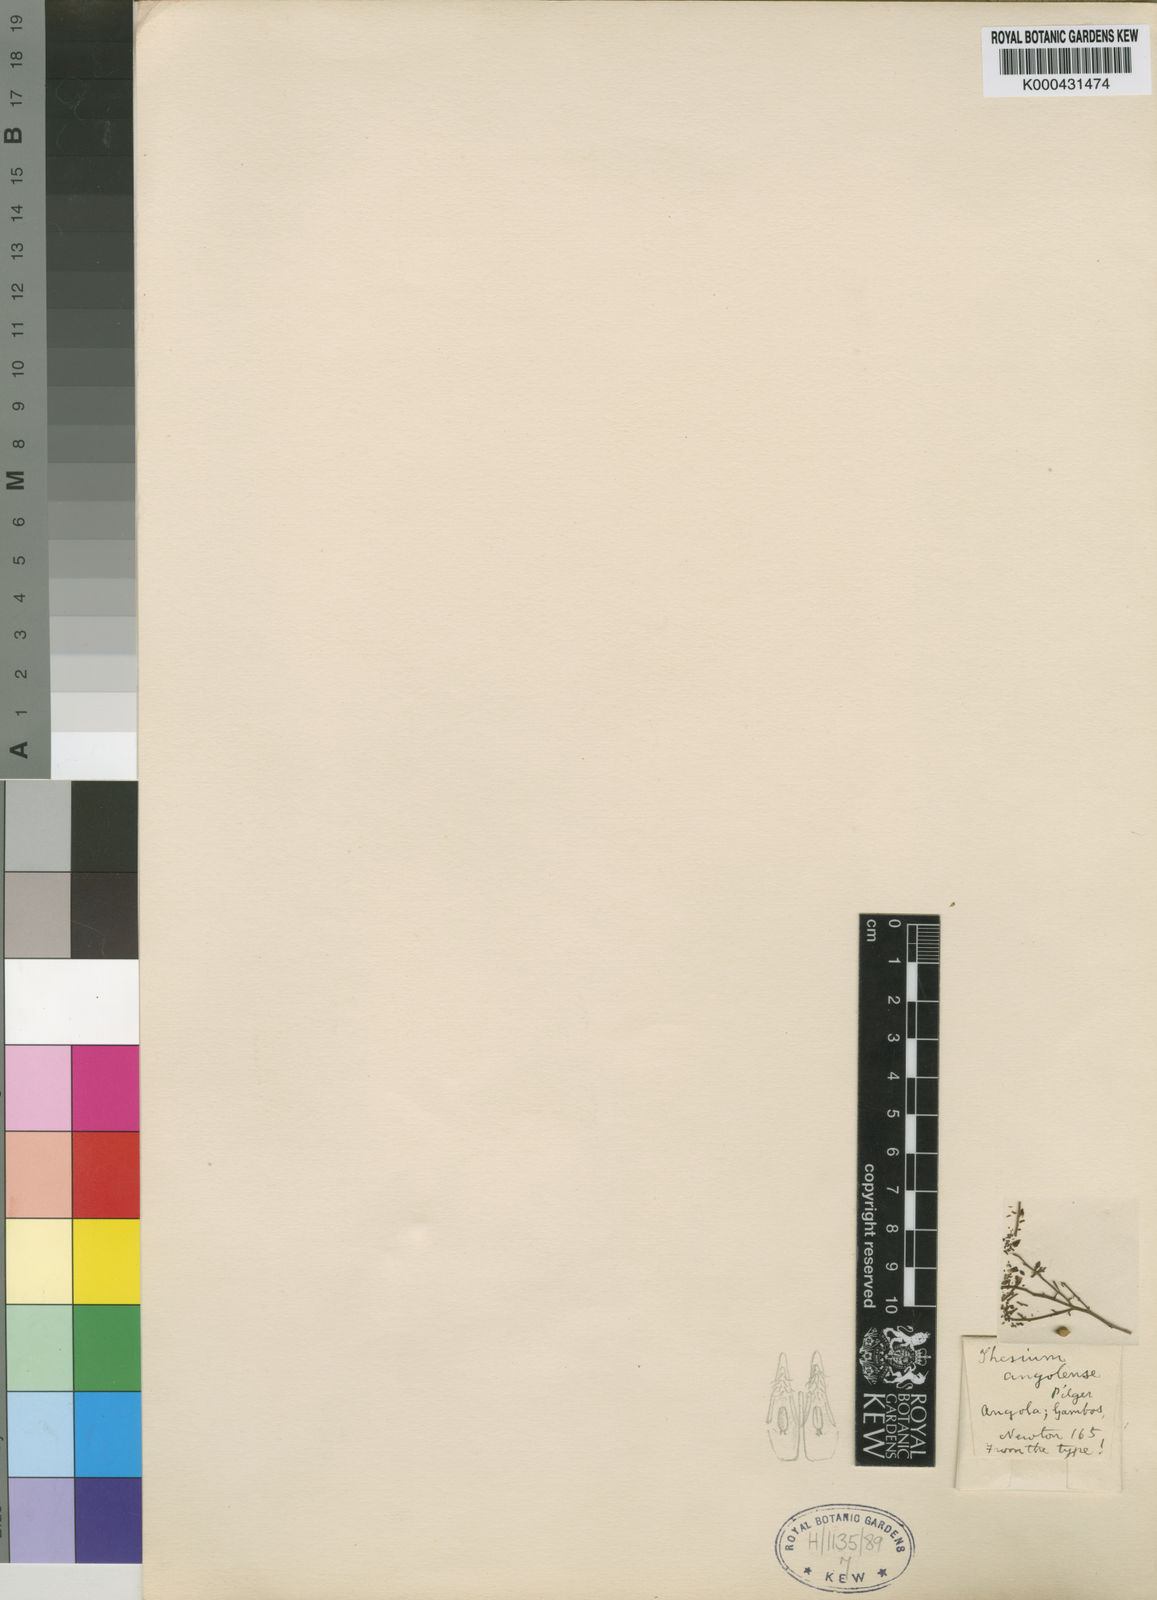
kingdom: Plantae
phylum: Tracheophyta
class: Magnoliopsida
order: Santalales
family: Thesiaceae
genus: Thesium
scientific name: Thesium angolense
